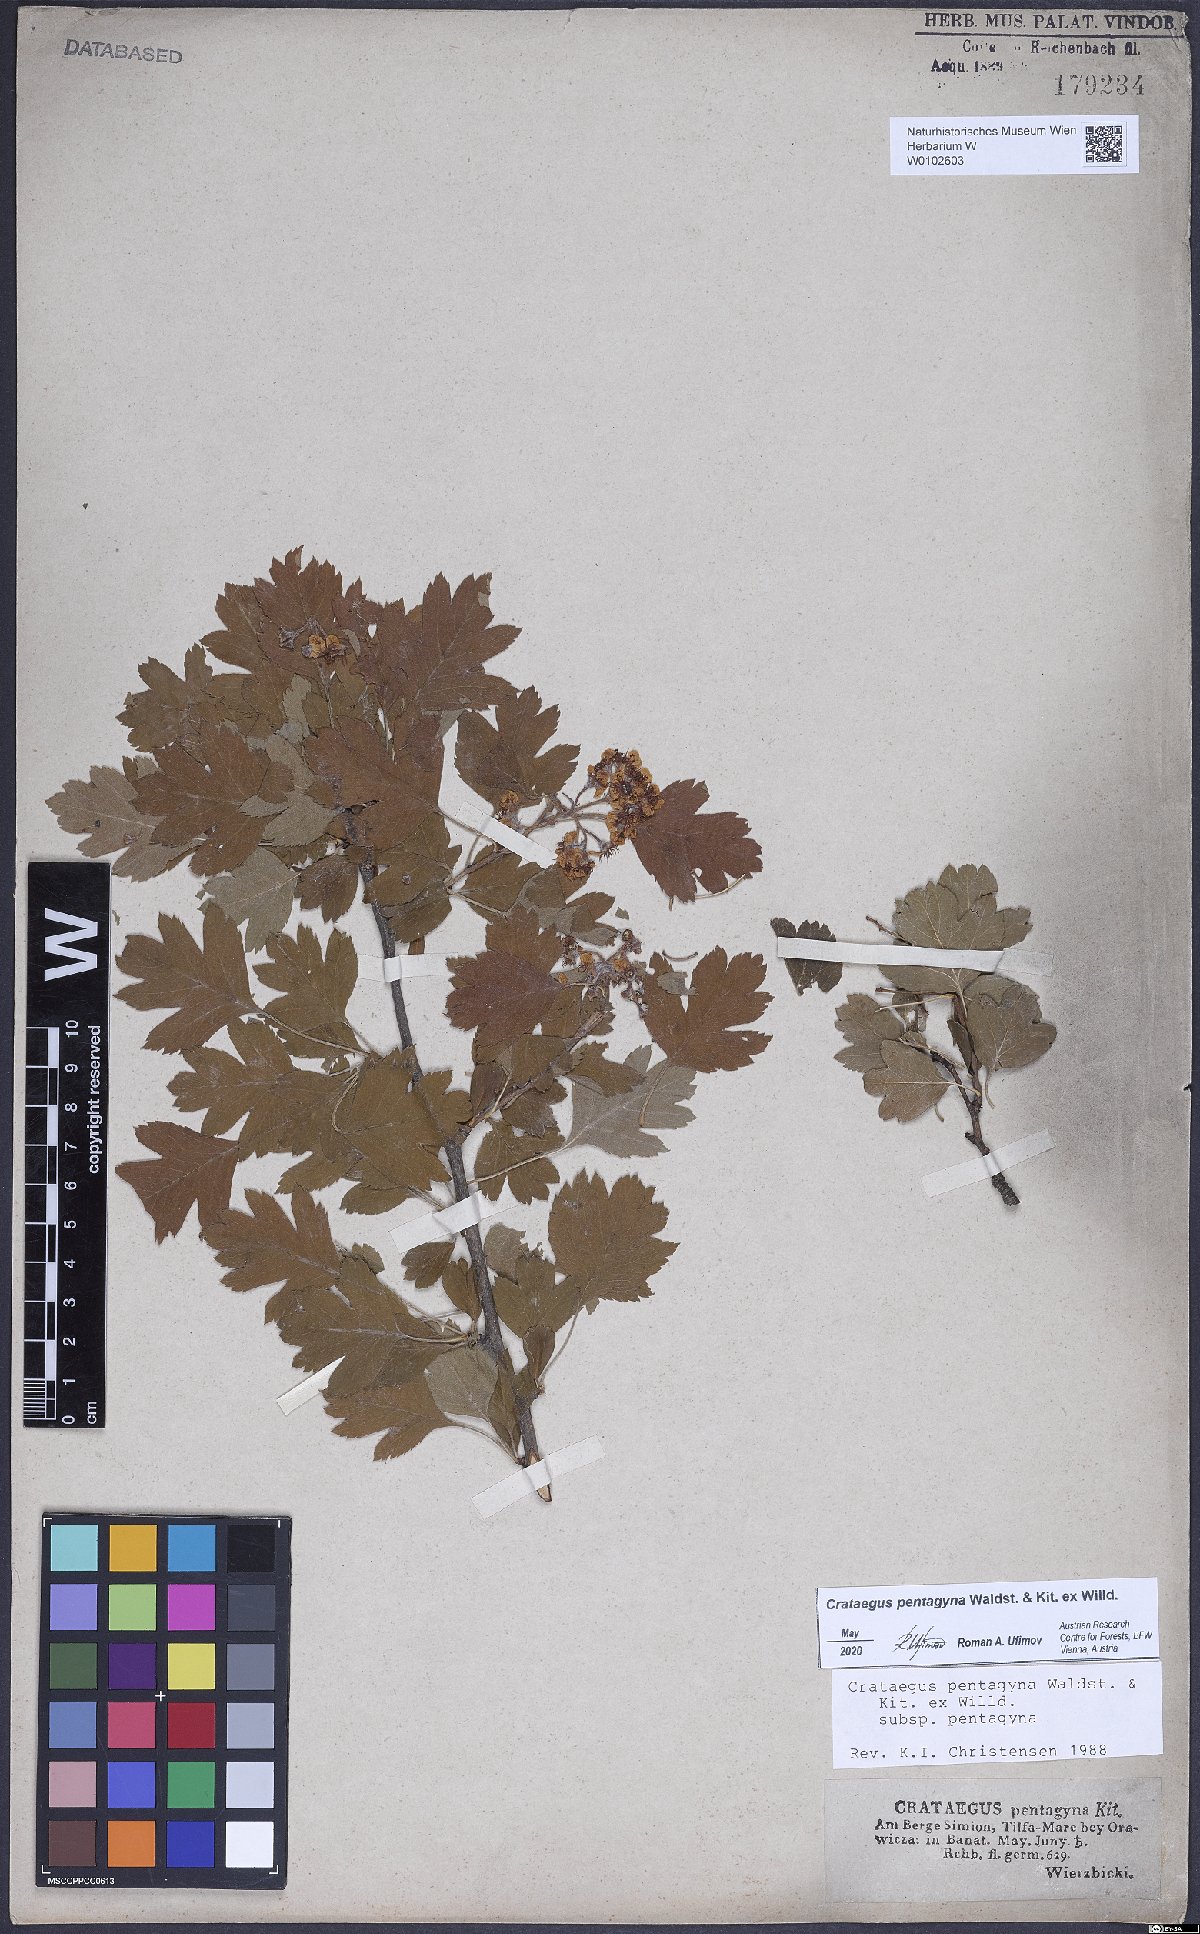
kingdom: Plantae
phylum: Tracheophyta
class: Magnoliopsida
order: Rosales
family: Rosaceae
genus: Crataegus
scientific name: Crataegus pentagyna
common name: Small-flowered black hawthorn
